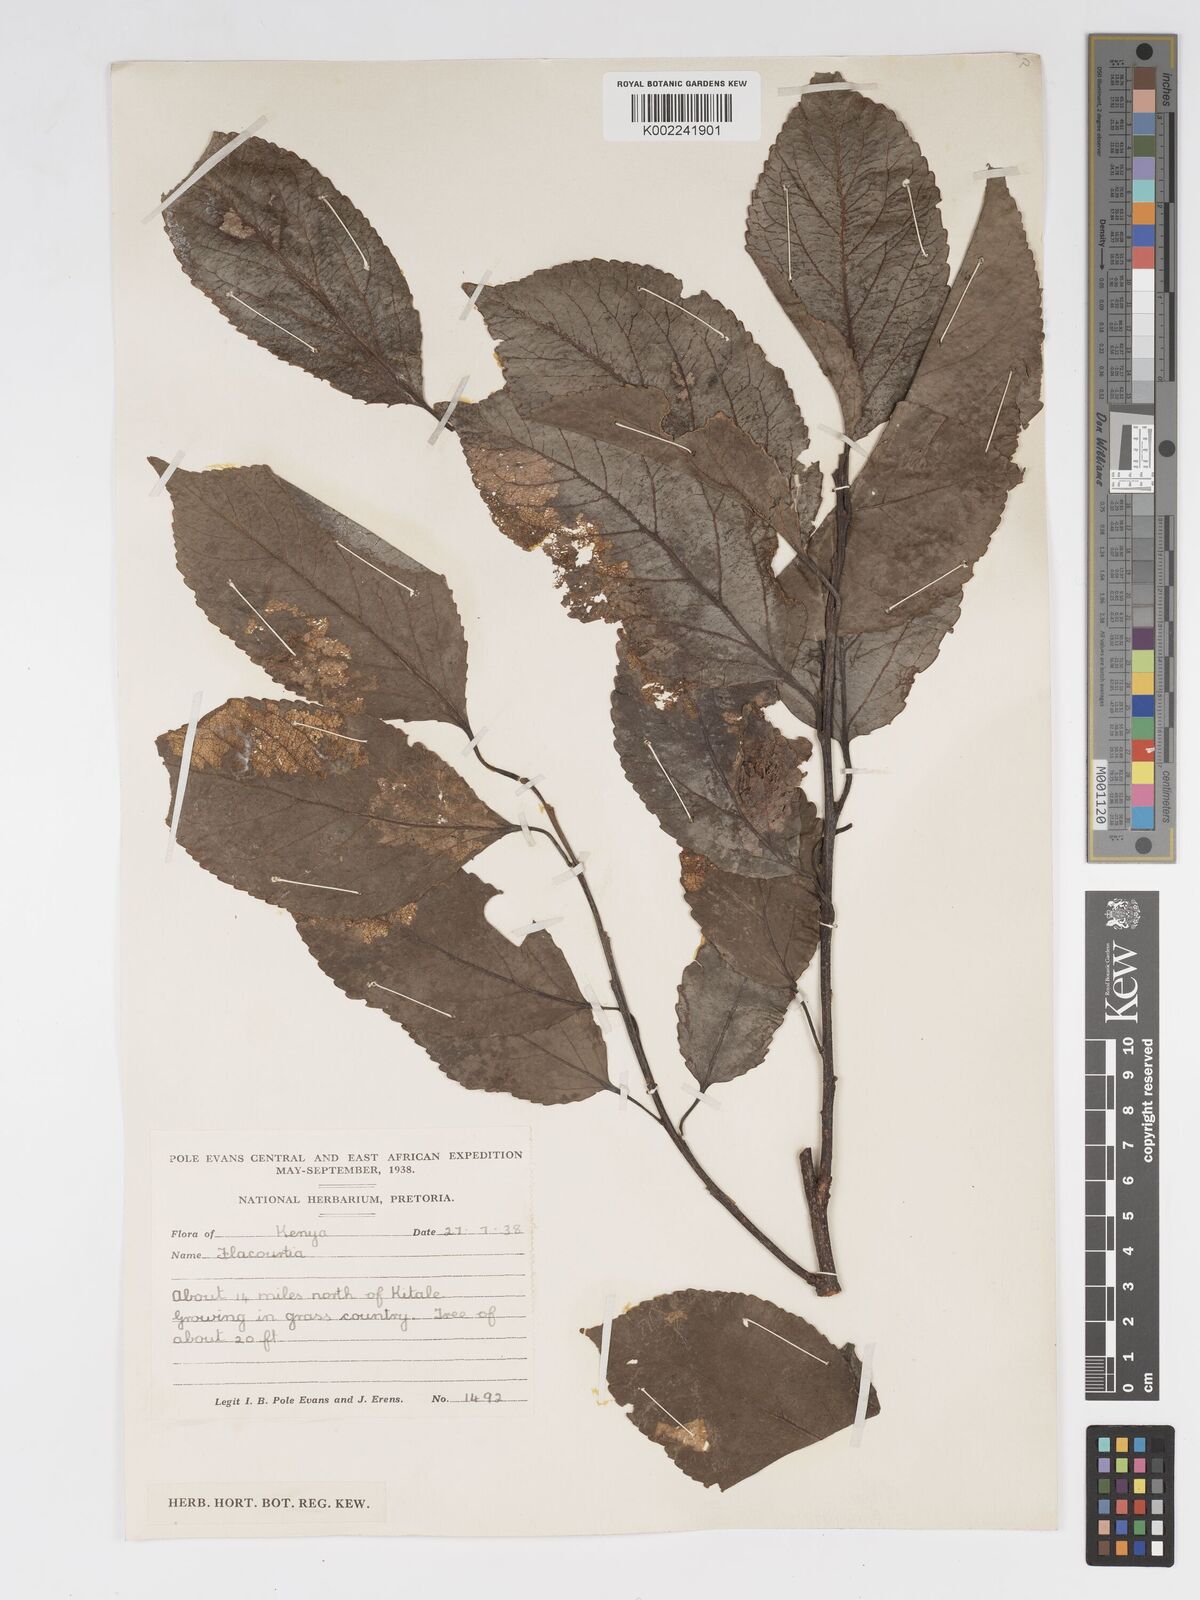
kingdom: Plantae
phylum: Tracheophyta
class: Magnoliopsida
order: Malpighiales
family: Salicaceae
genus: Flacourtia
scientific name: Flacourtia indica
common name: Governor's plum
